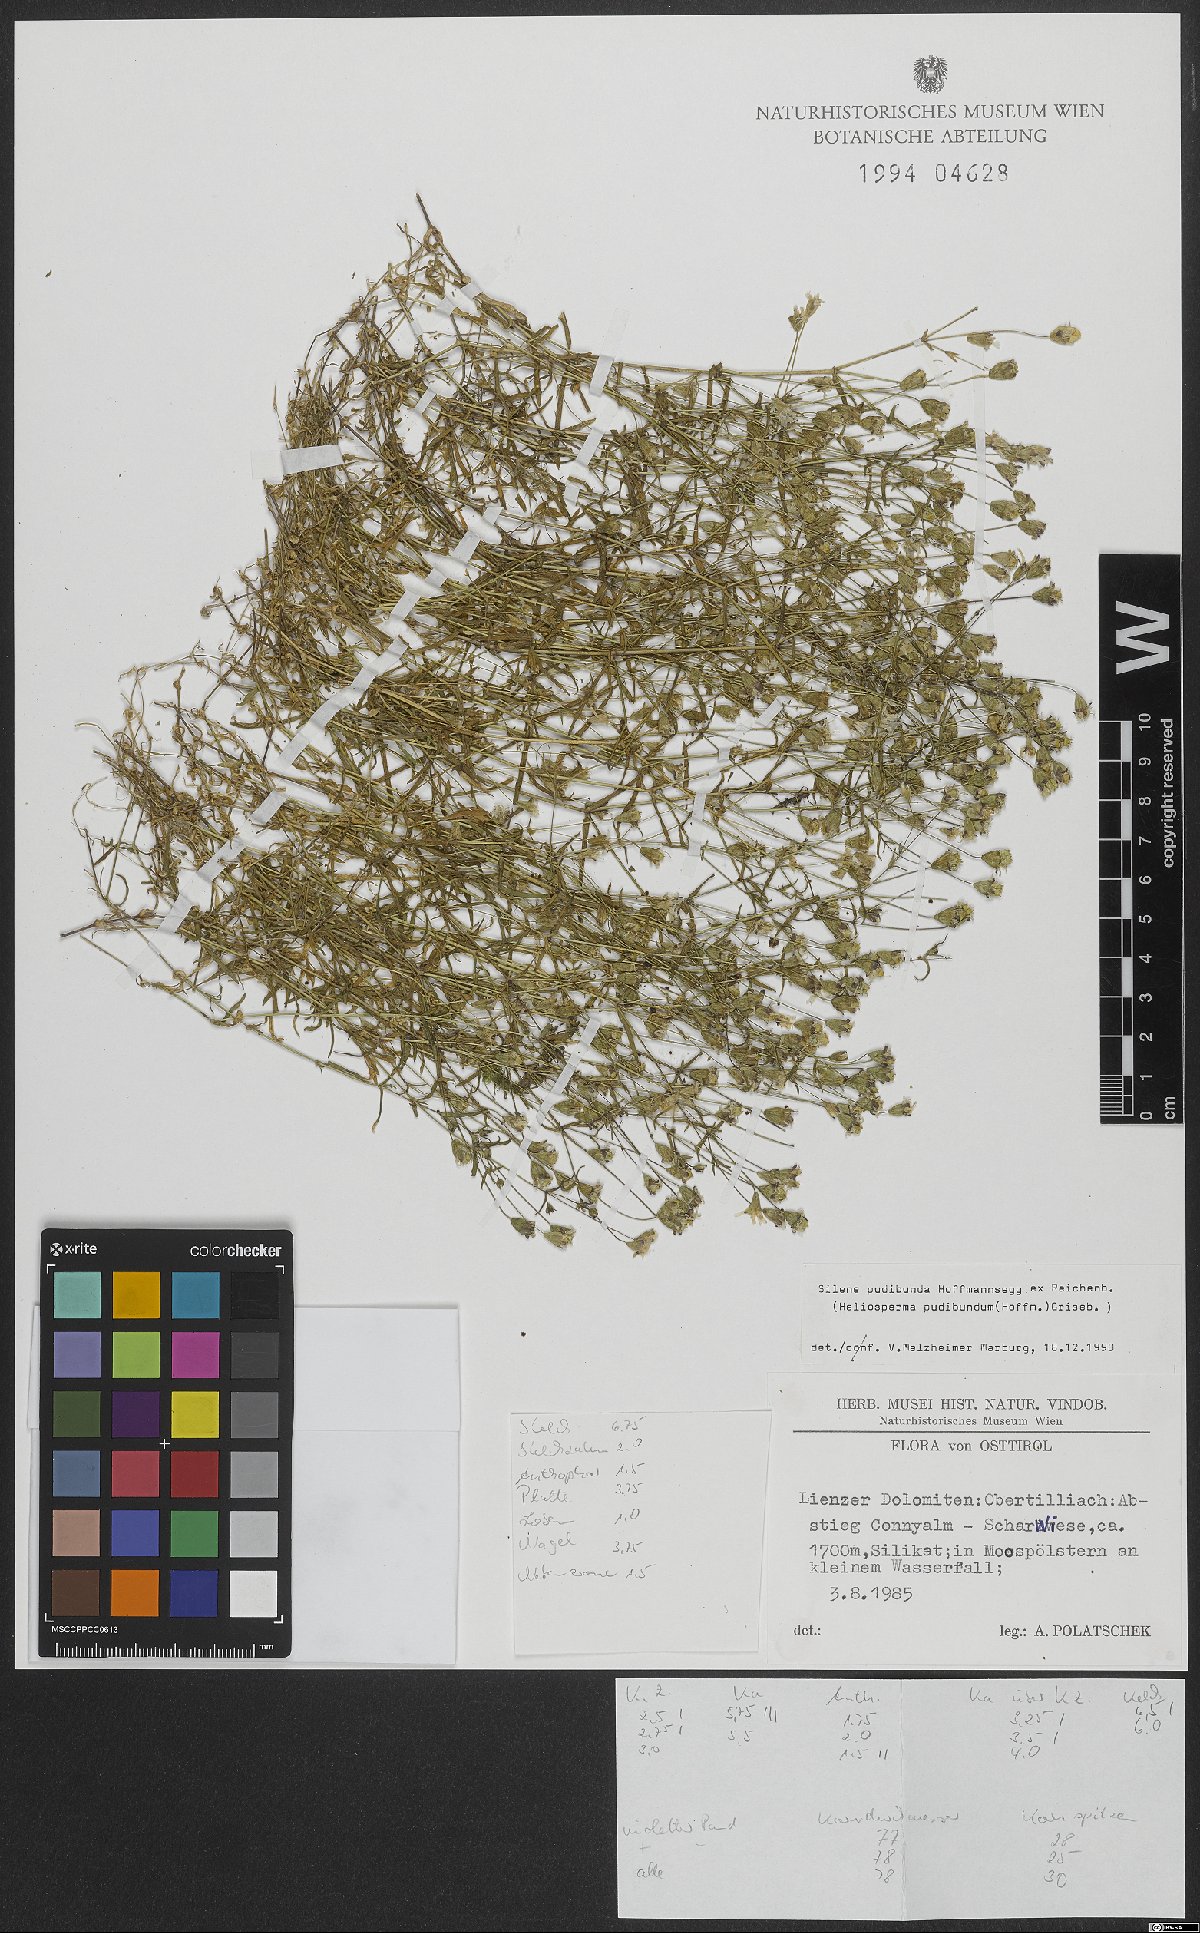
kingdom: Plantae
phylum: Tracheophyta
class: Magnoliopsida
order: Caryophyllales
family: Caryophyllaceae
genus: Heliosperma
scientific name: Heliosperma pudibundum
